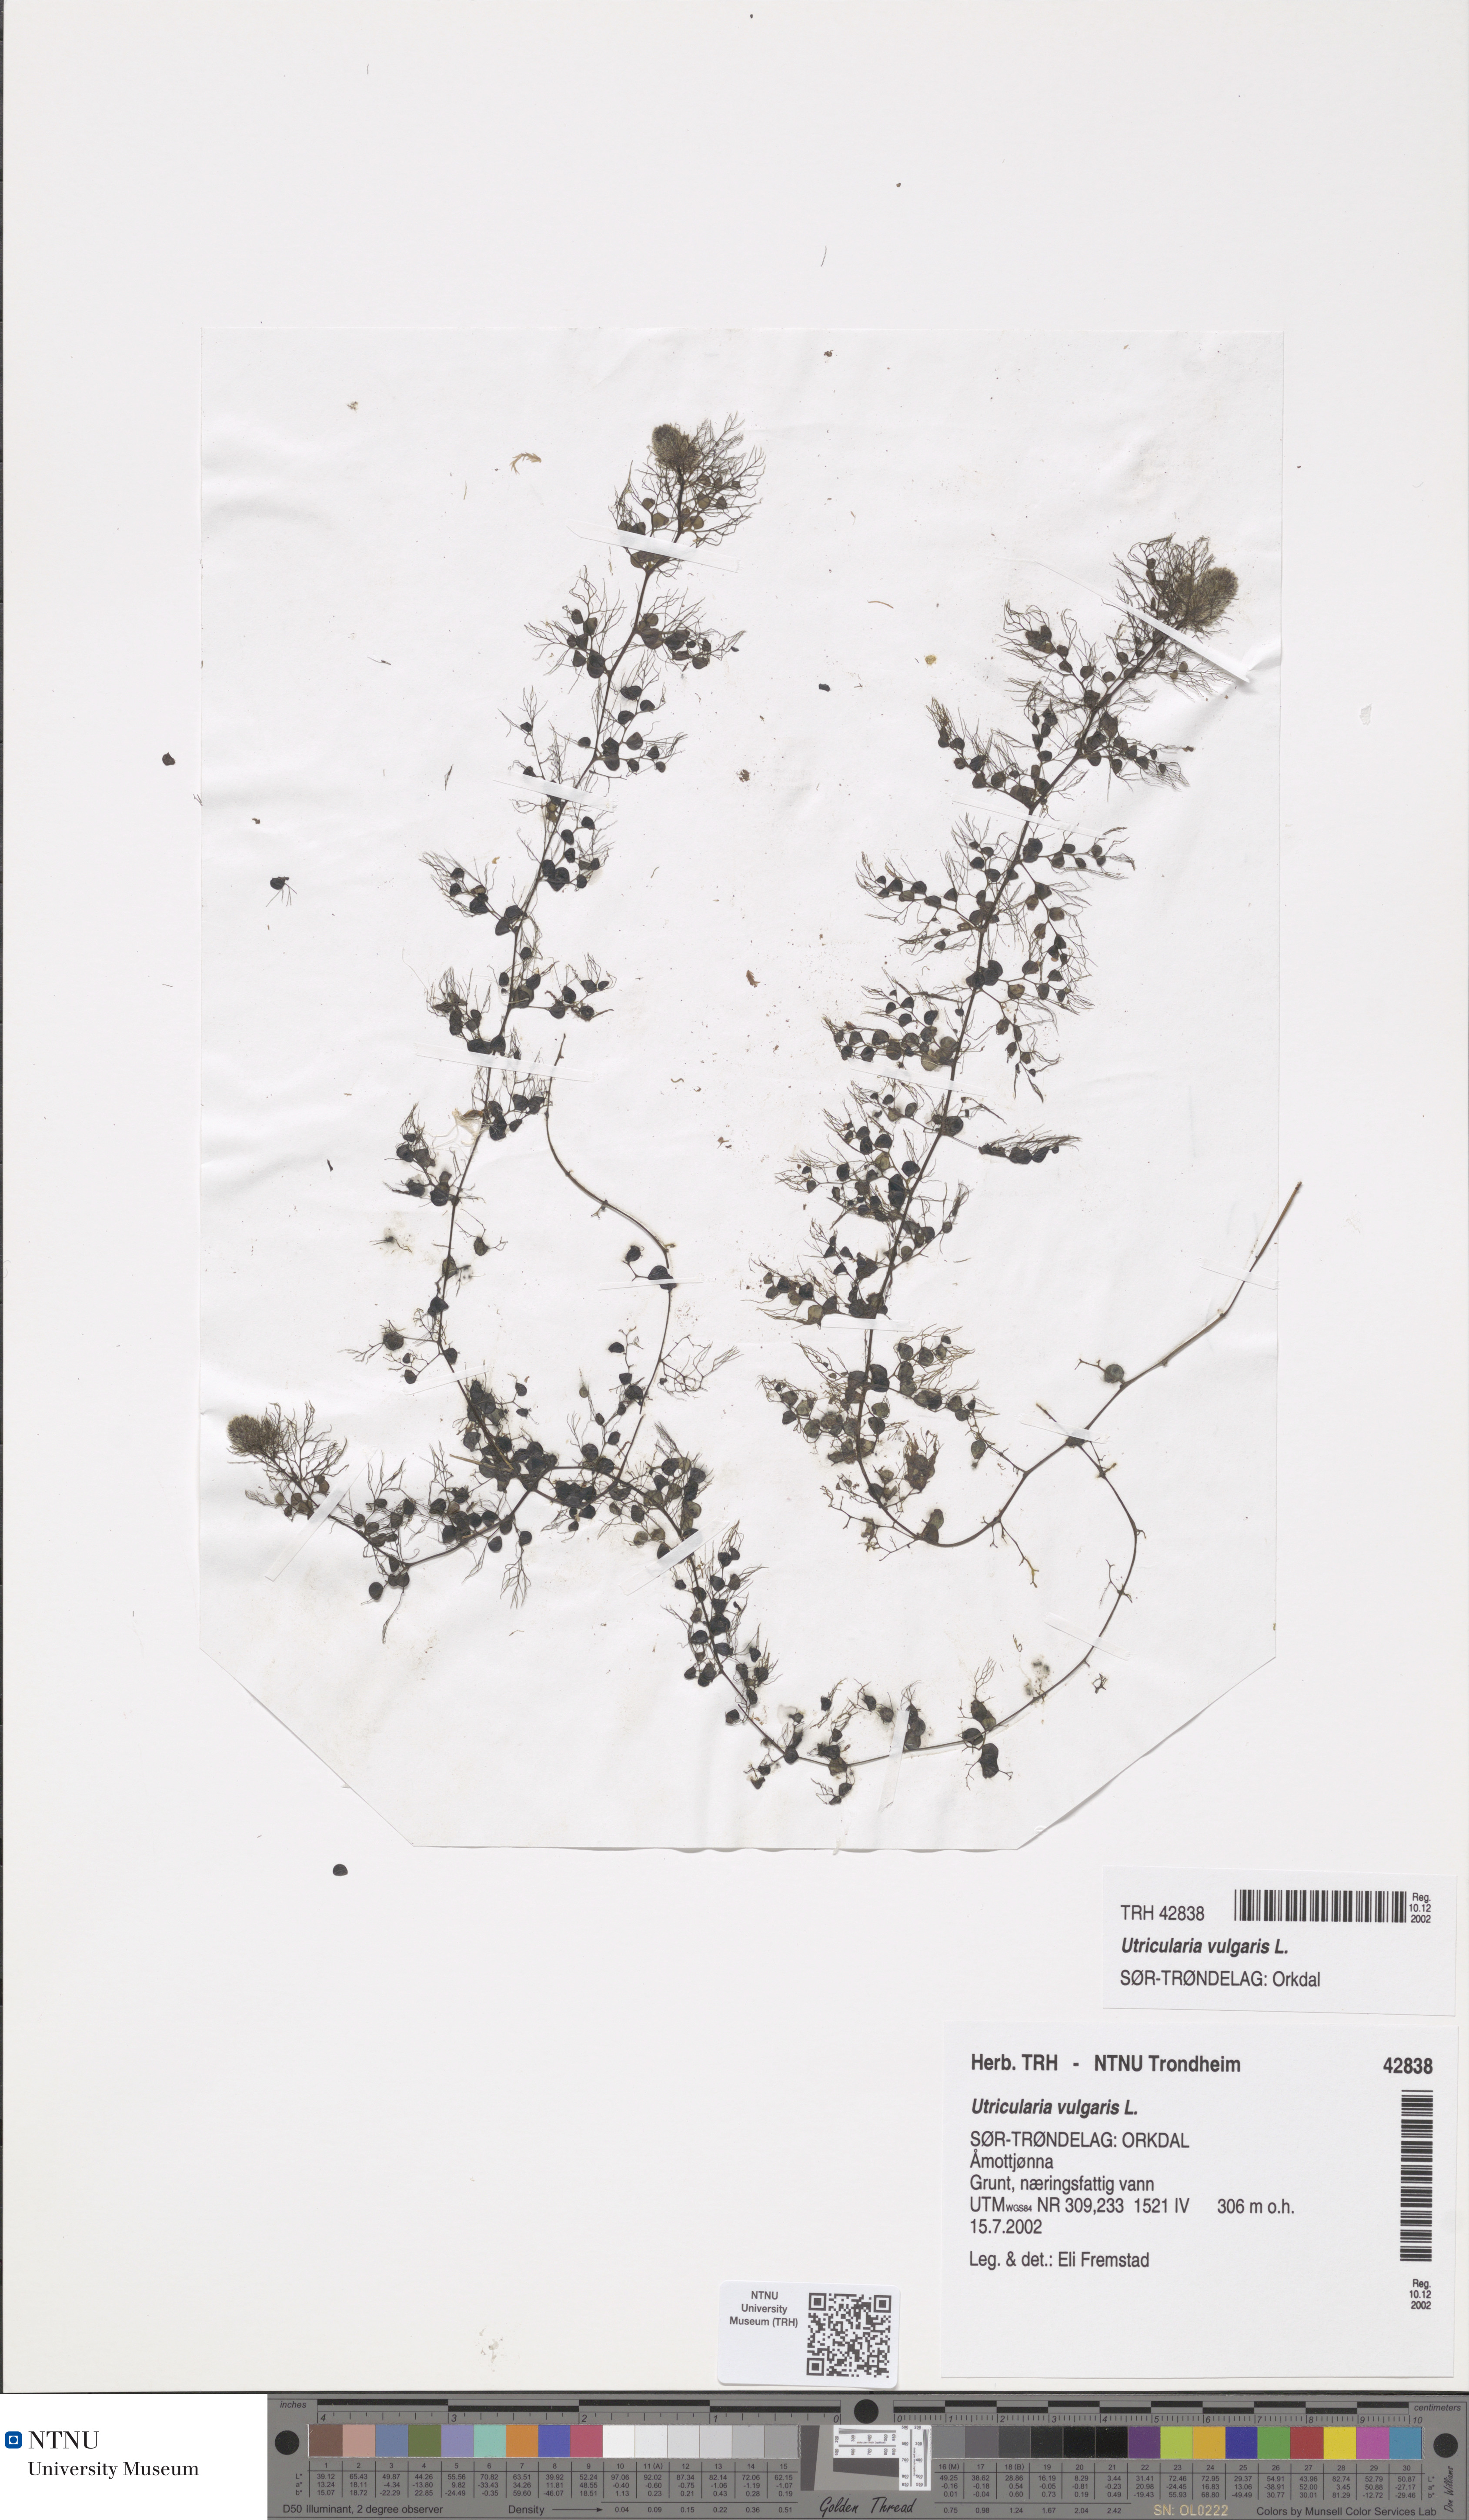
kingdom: Plantae
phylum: Tracheophyta
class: Magnoliopsida
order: Lamiales
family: Lentibulariaceae
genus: Utricularia
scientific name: Utricularia vulgaris
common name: Greater bladderwort
